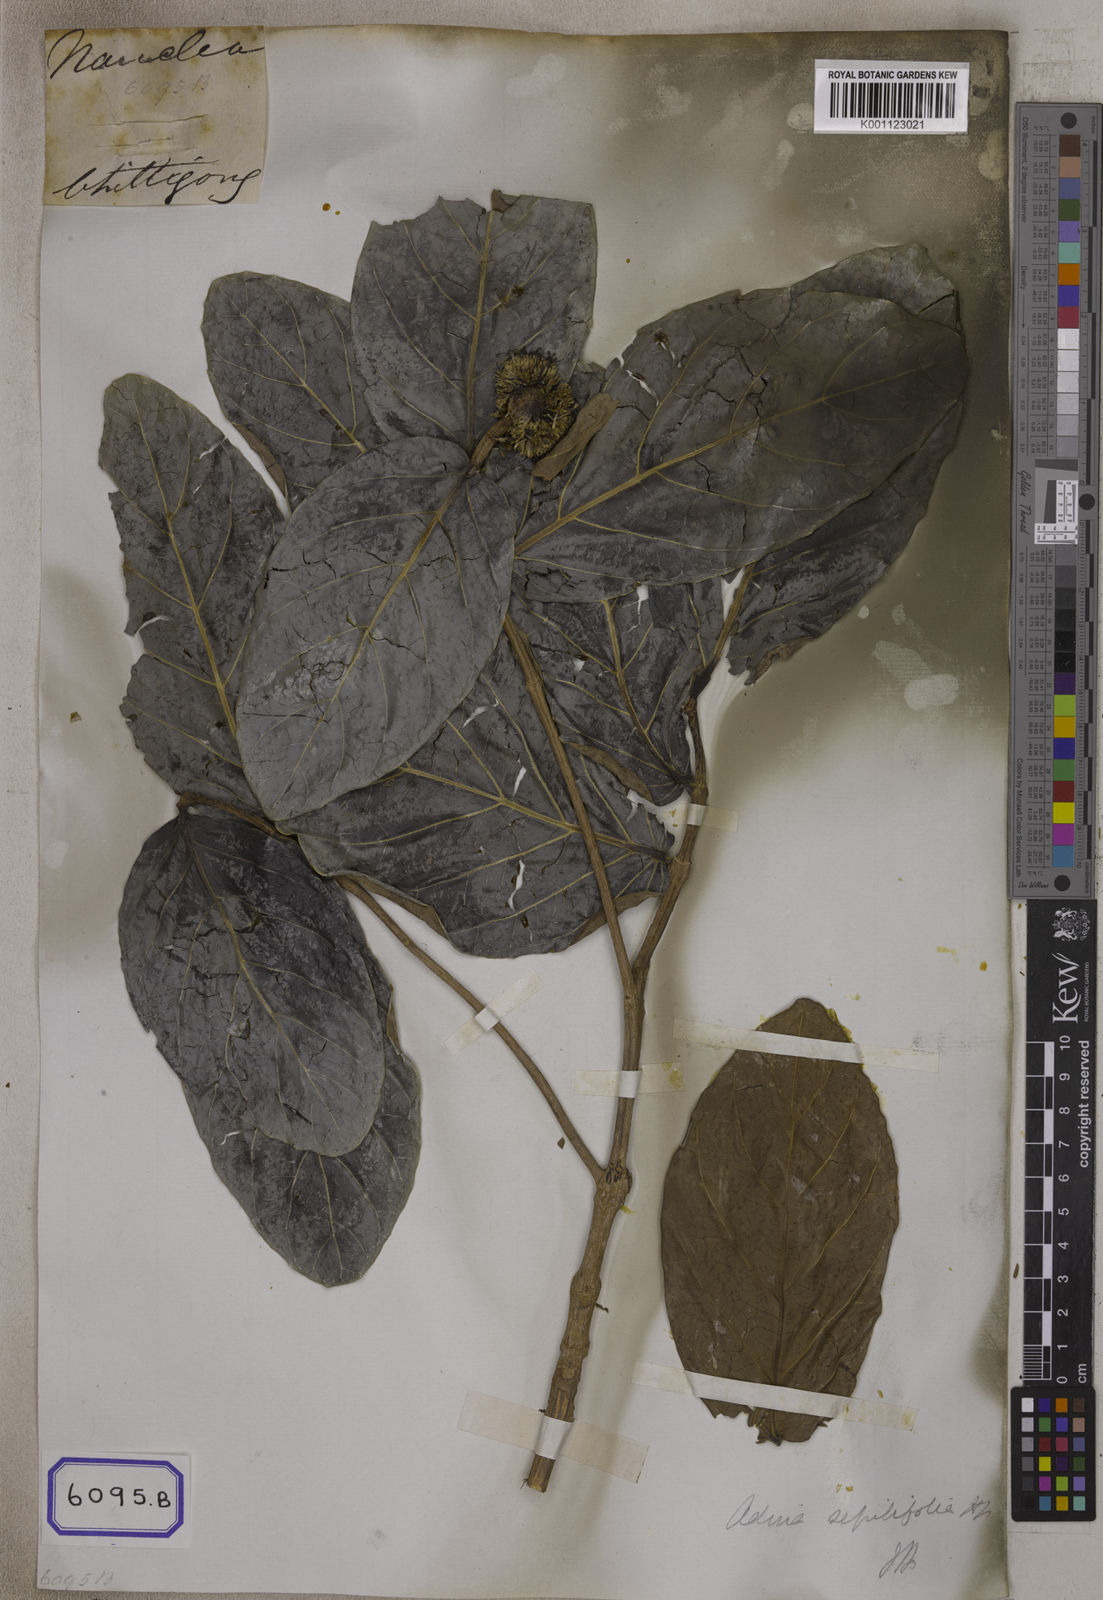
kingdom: Plantae
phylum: Tracheophyta
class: Magnoliopsida
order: Gentianales
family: Rubiaceae
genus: Nauclea
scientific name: Nauclea
